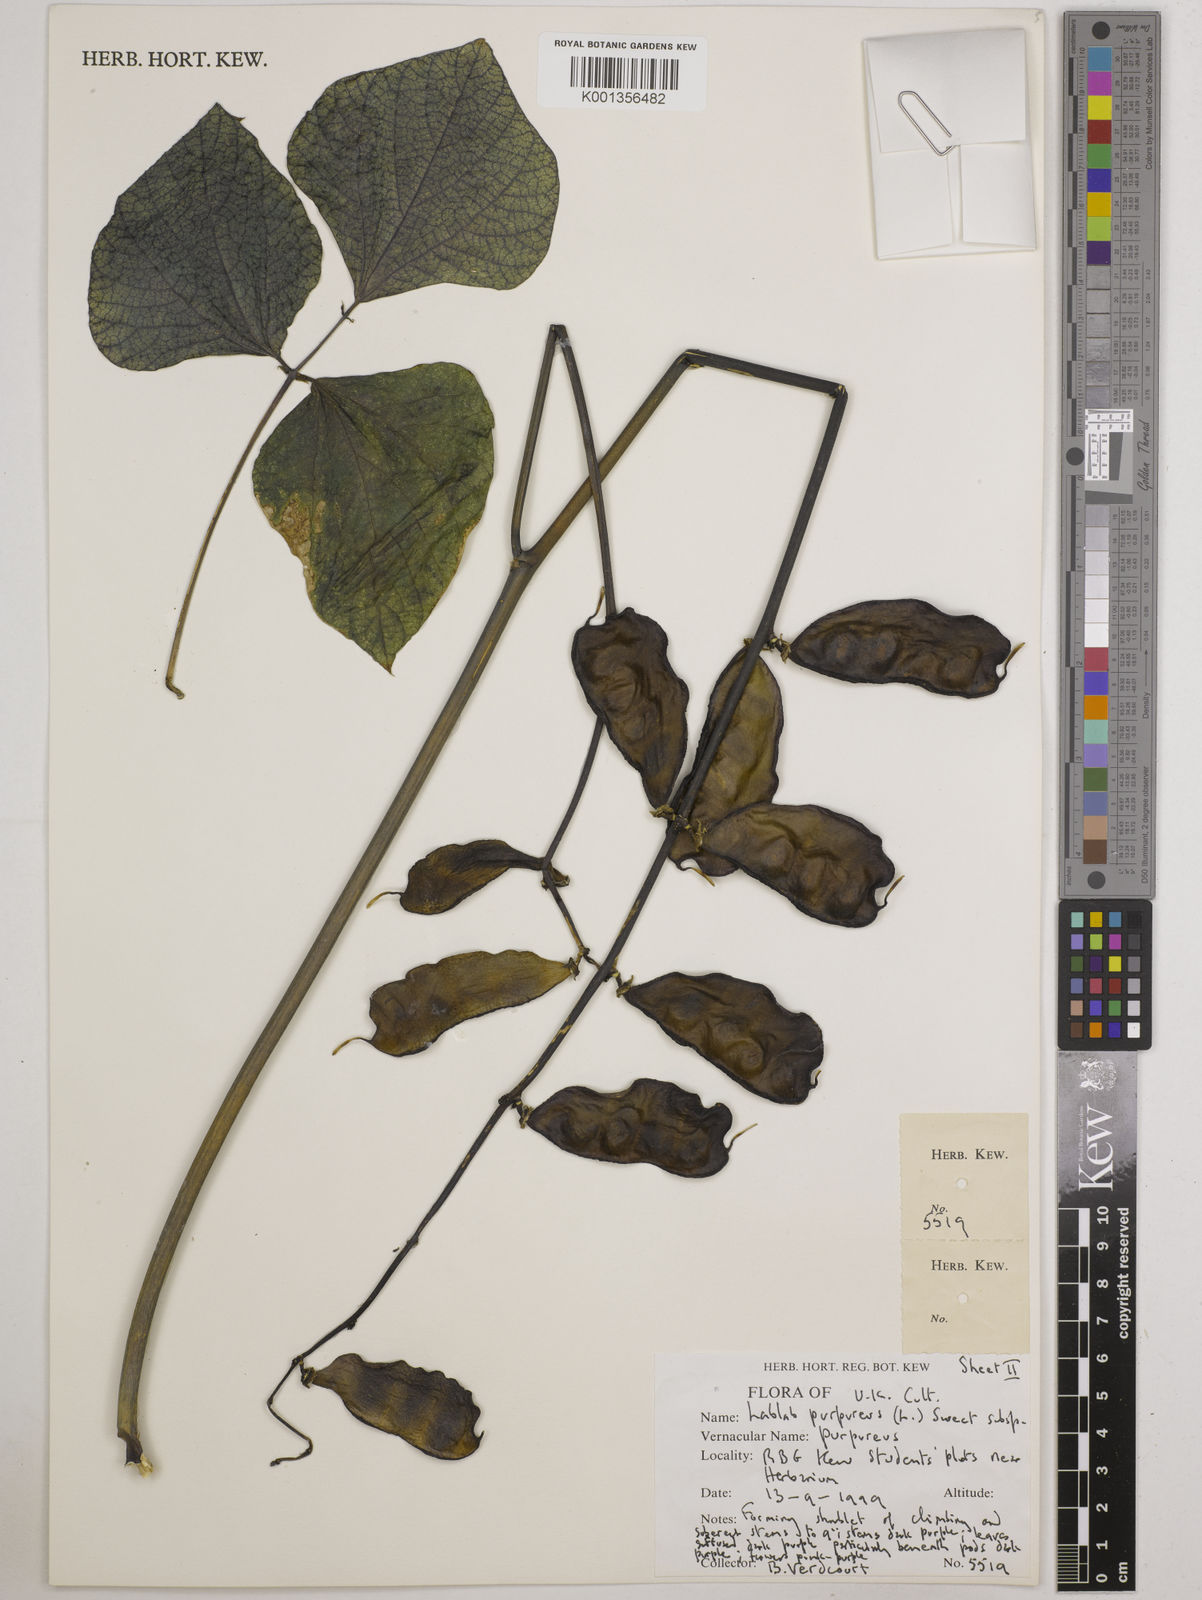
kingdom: Plantae
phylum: Tracheophyta
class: Magnoliopsida
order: Fabales
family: Fabaceae
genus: Lablab
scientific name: Lablab purpureus
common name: Lablab-bean
